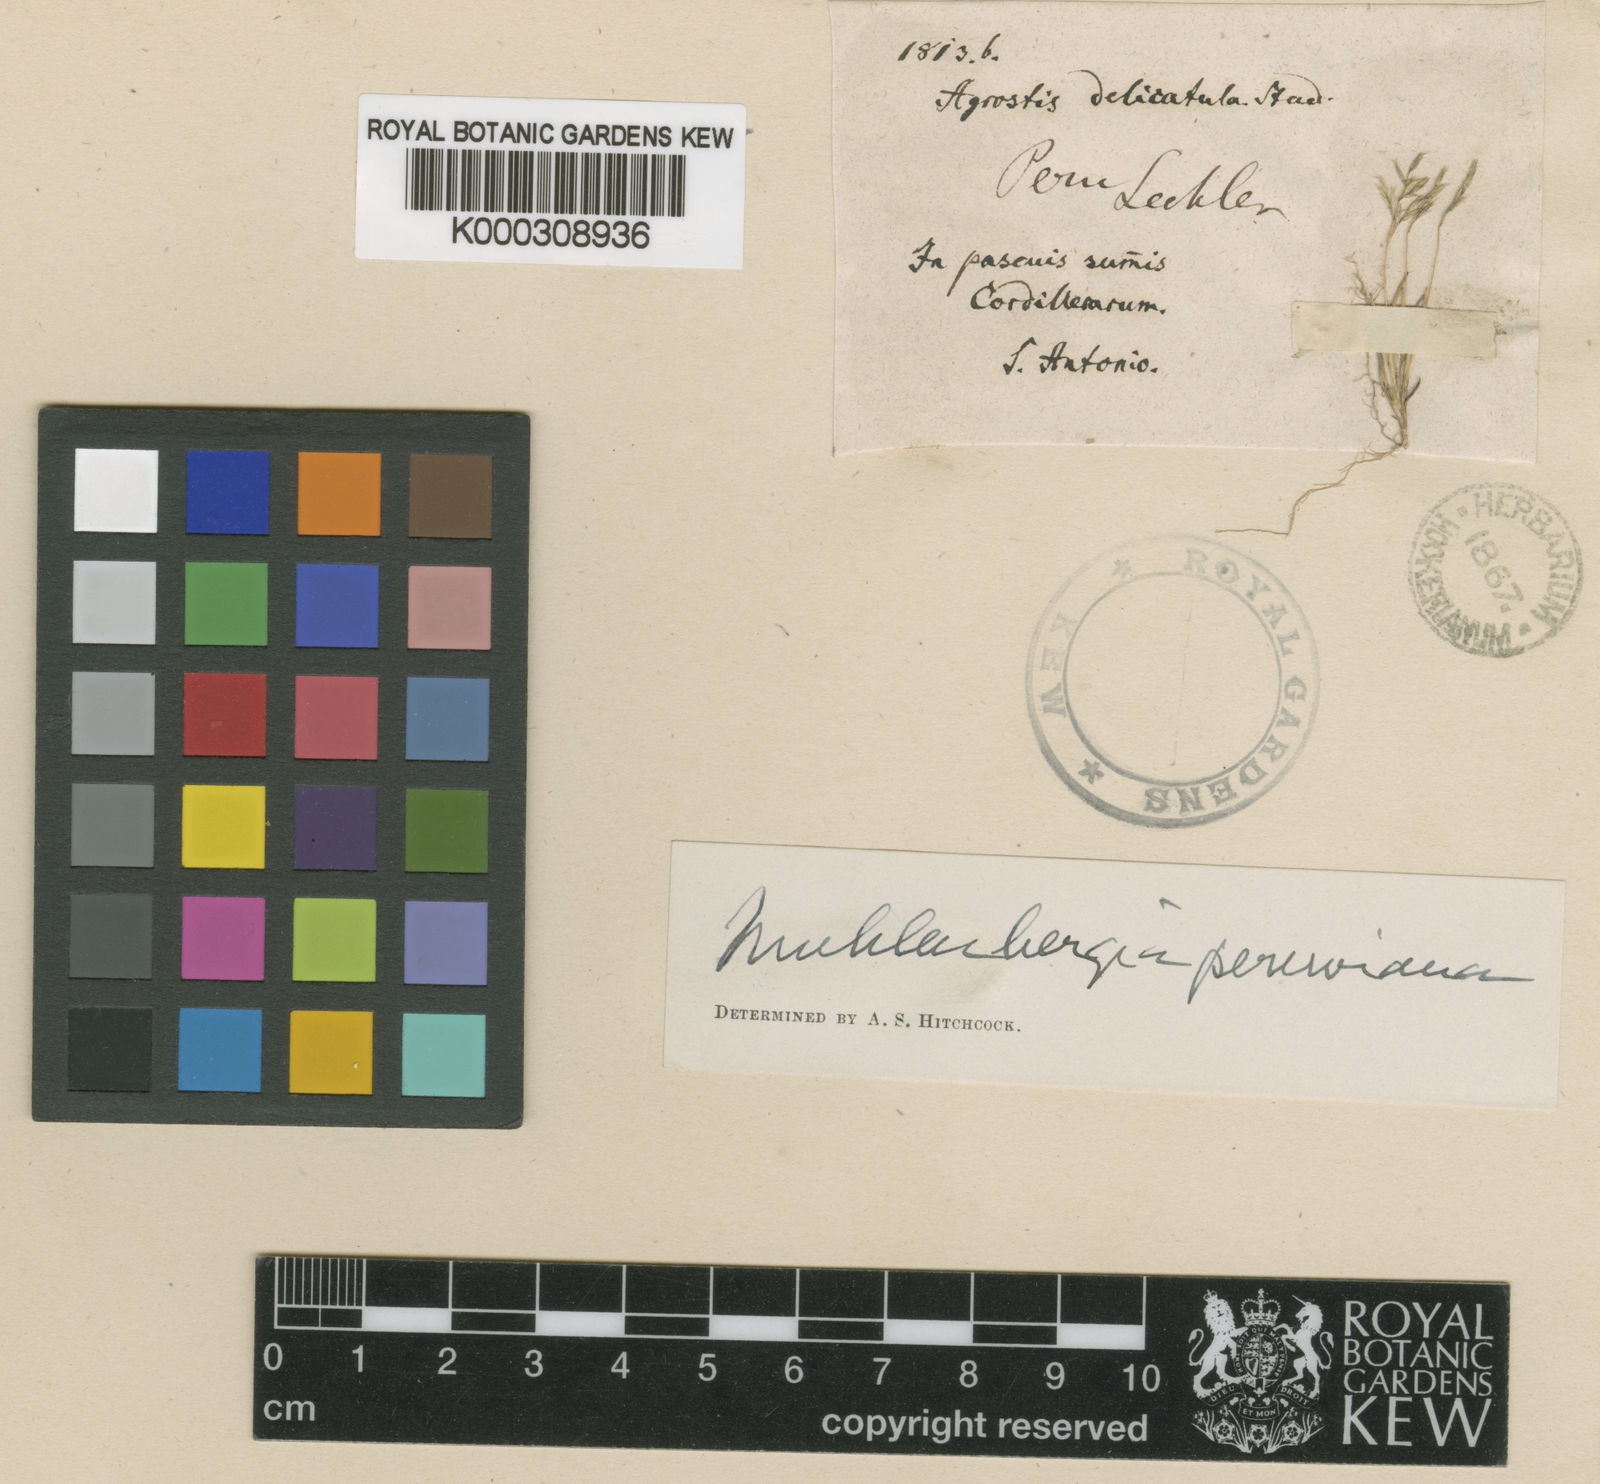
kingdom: Plantae
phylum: Tracheophyta
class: Liliopsida
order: Poales
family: Poaceae
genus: Muhlenbergia
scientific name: Muhlenbergia peruviana
